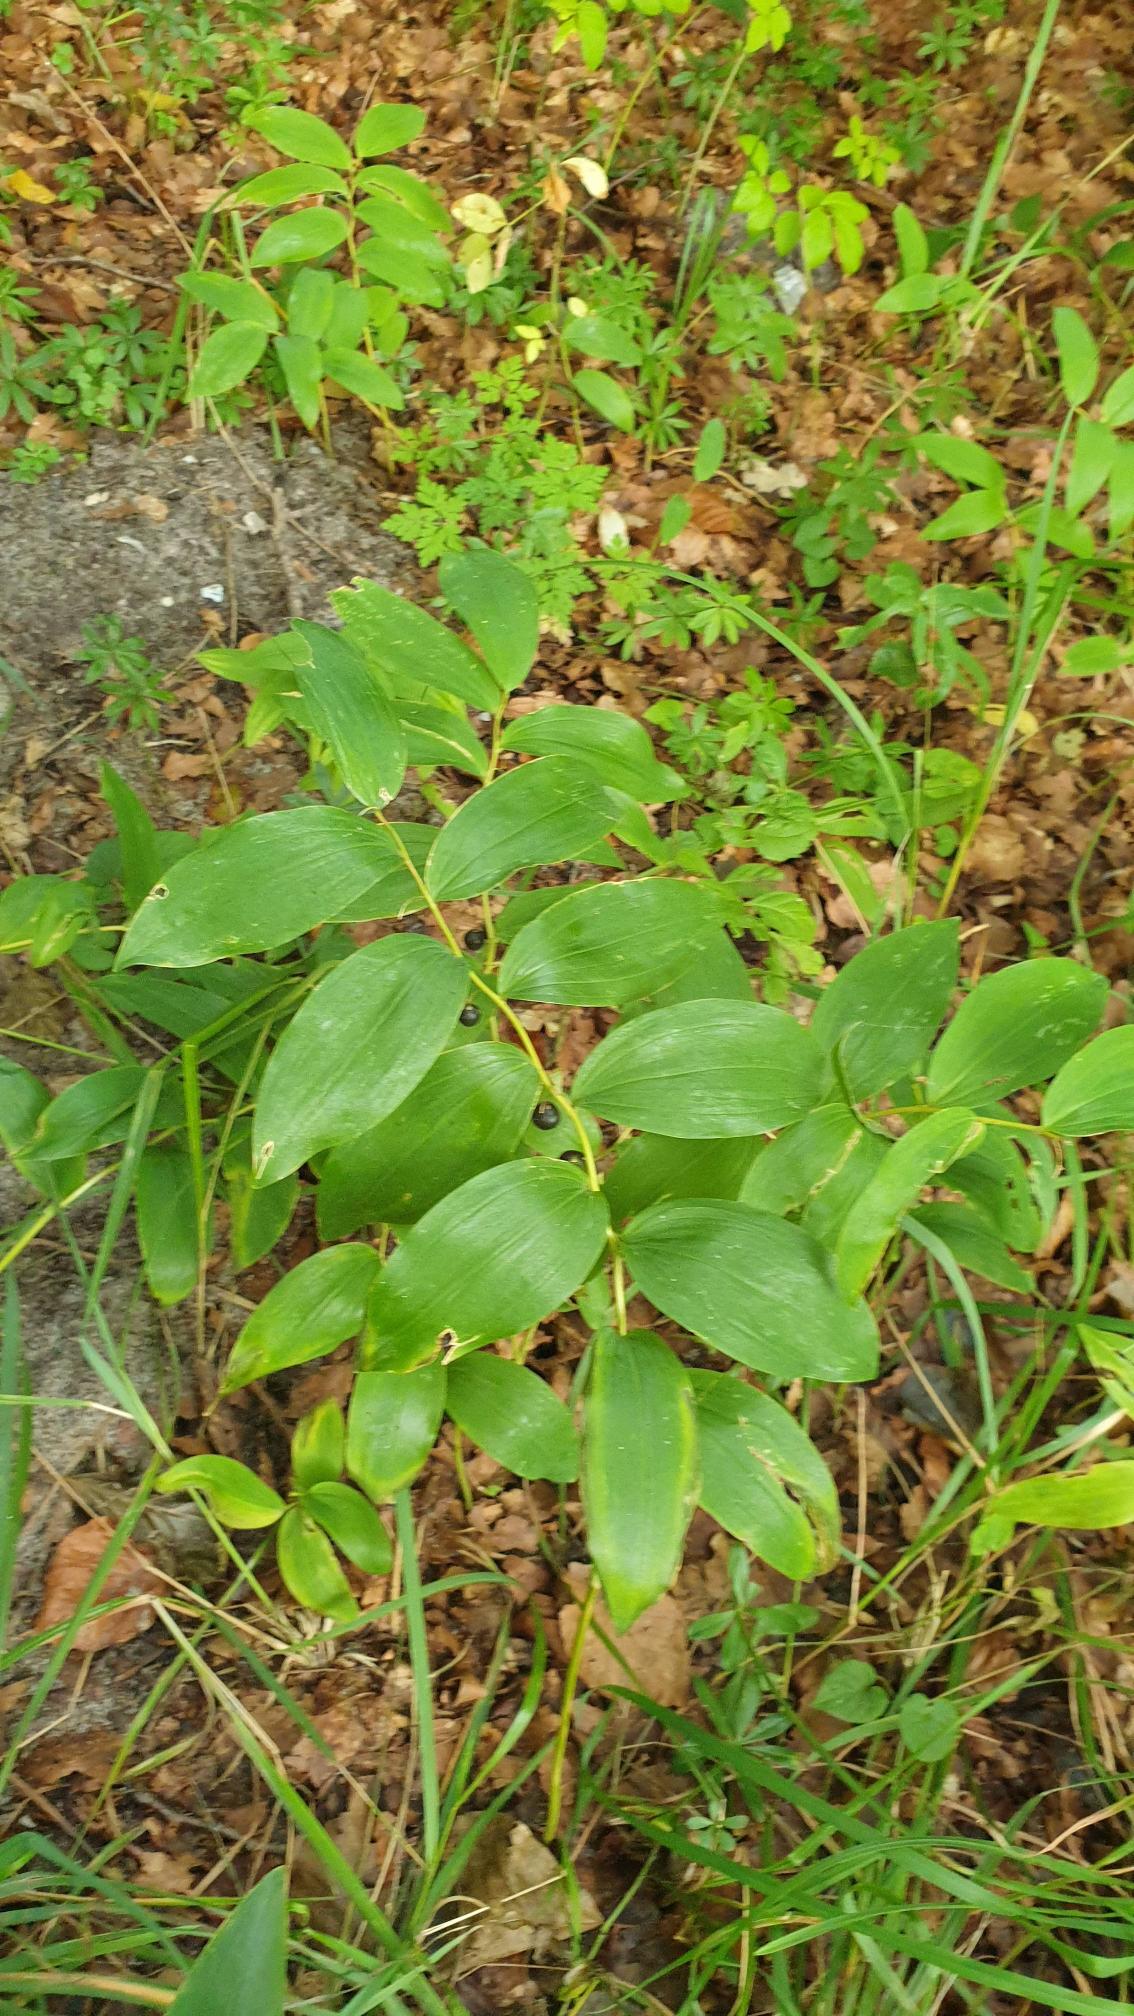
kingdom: Plantae
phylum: Tracheophyta
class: Liliopsida
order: Asparagales
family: Asparagaceae
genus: Polygonatum
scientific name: Polygonatum multiflorum
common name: Stor konval
